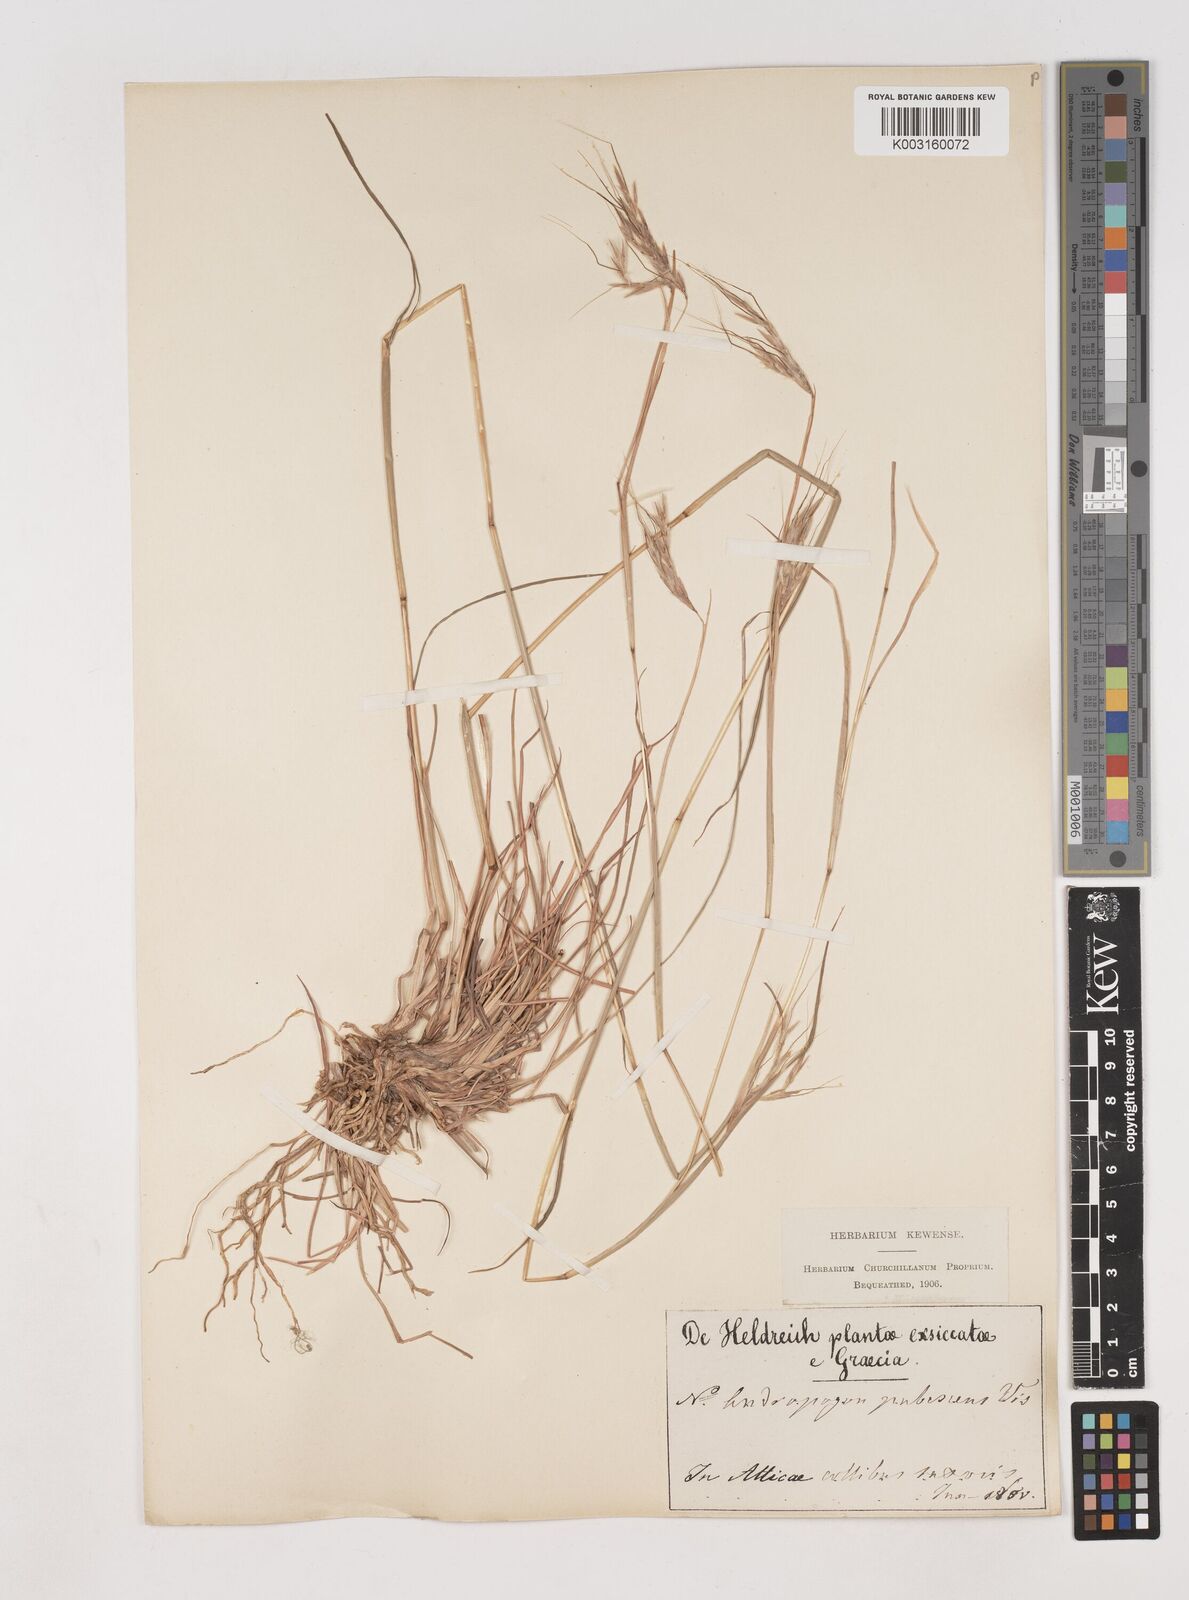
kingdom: Plantae
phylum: Tracheophyta
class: Liliopsida
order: Poales
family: Poaceae
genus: Hyparrhenia
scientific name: Hyparrhenia hirta
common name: Thatching grass
